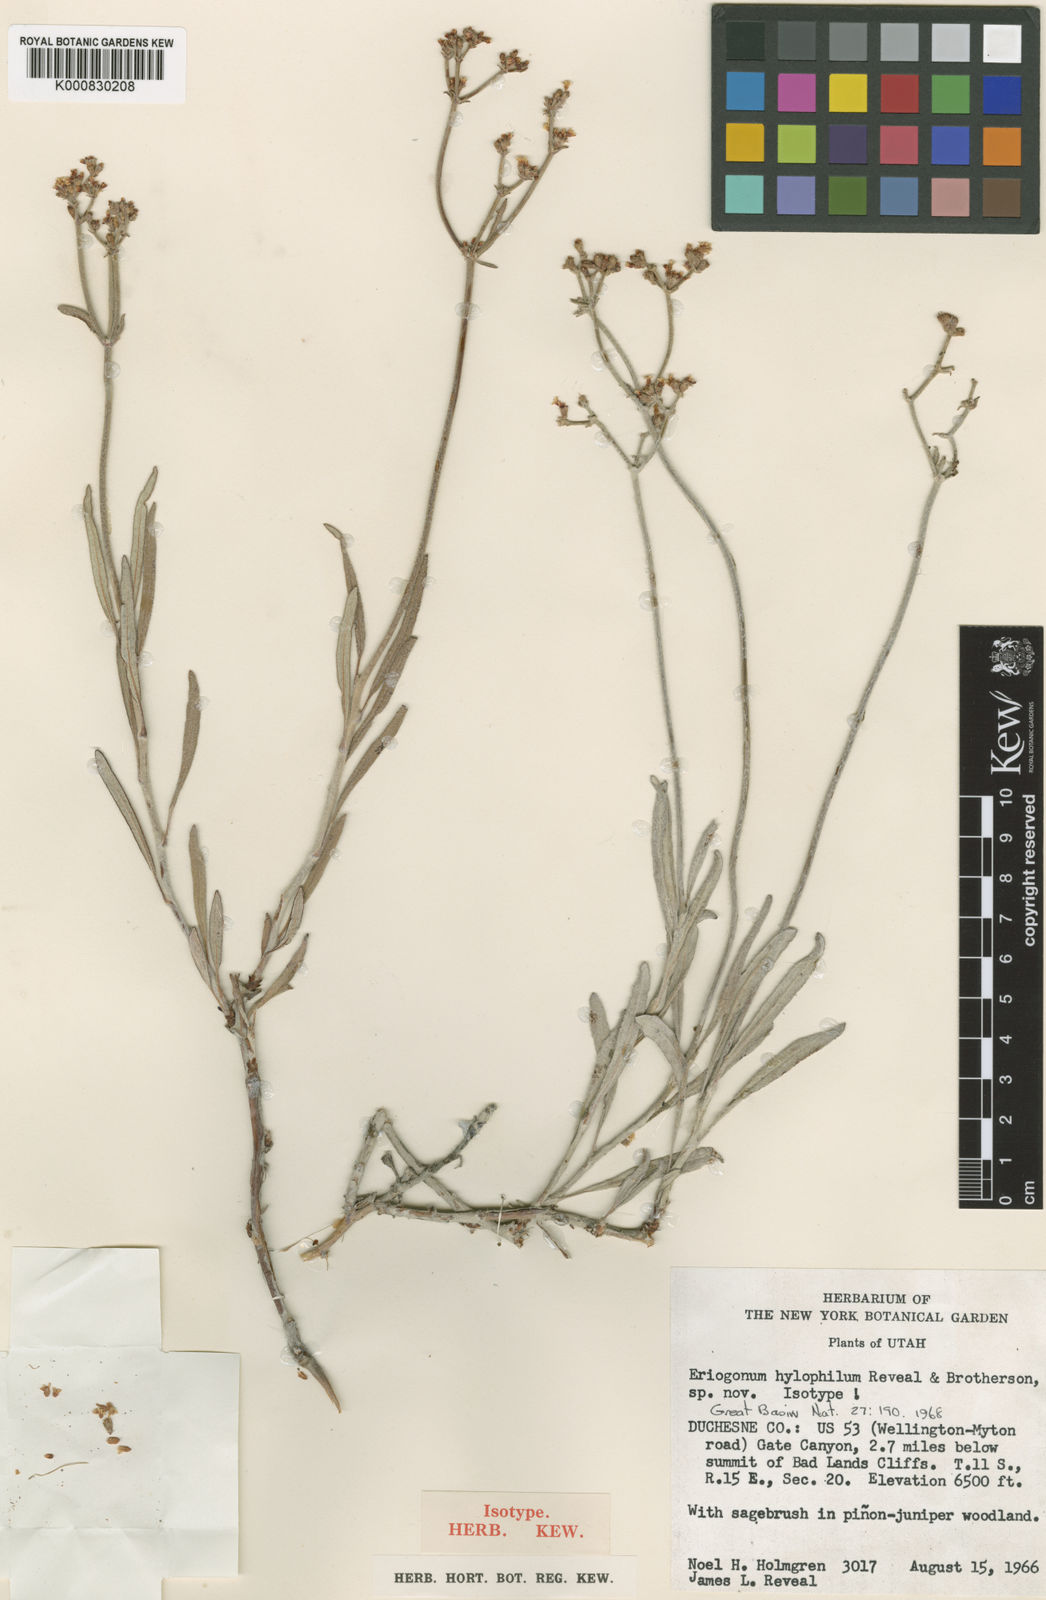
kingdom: Plantae
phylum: Tracheophyta
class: Magnoliopsida
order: Caryophyllales
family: Polygonaceae
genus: Eriogonum
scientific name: Eriogonum hylophilum
